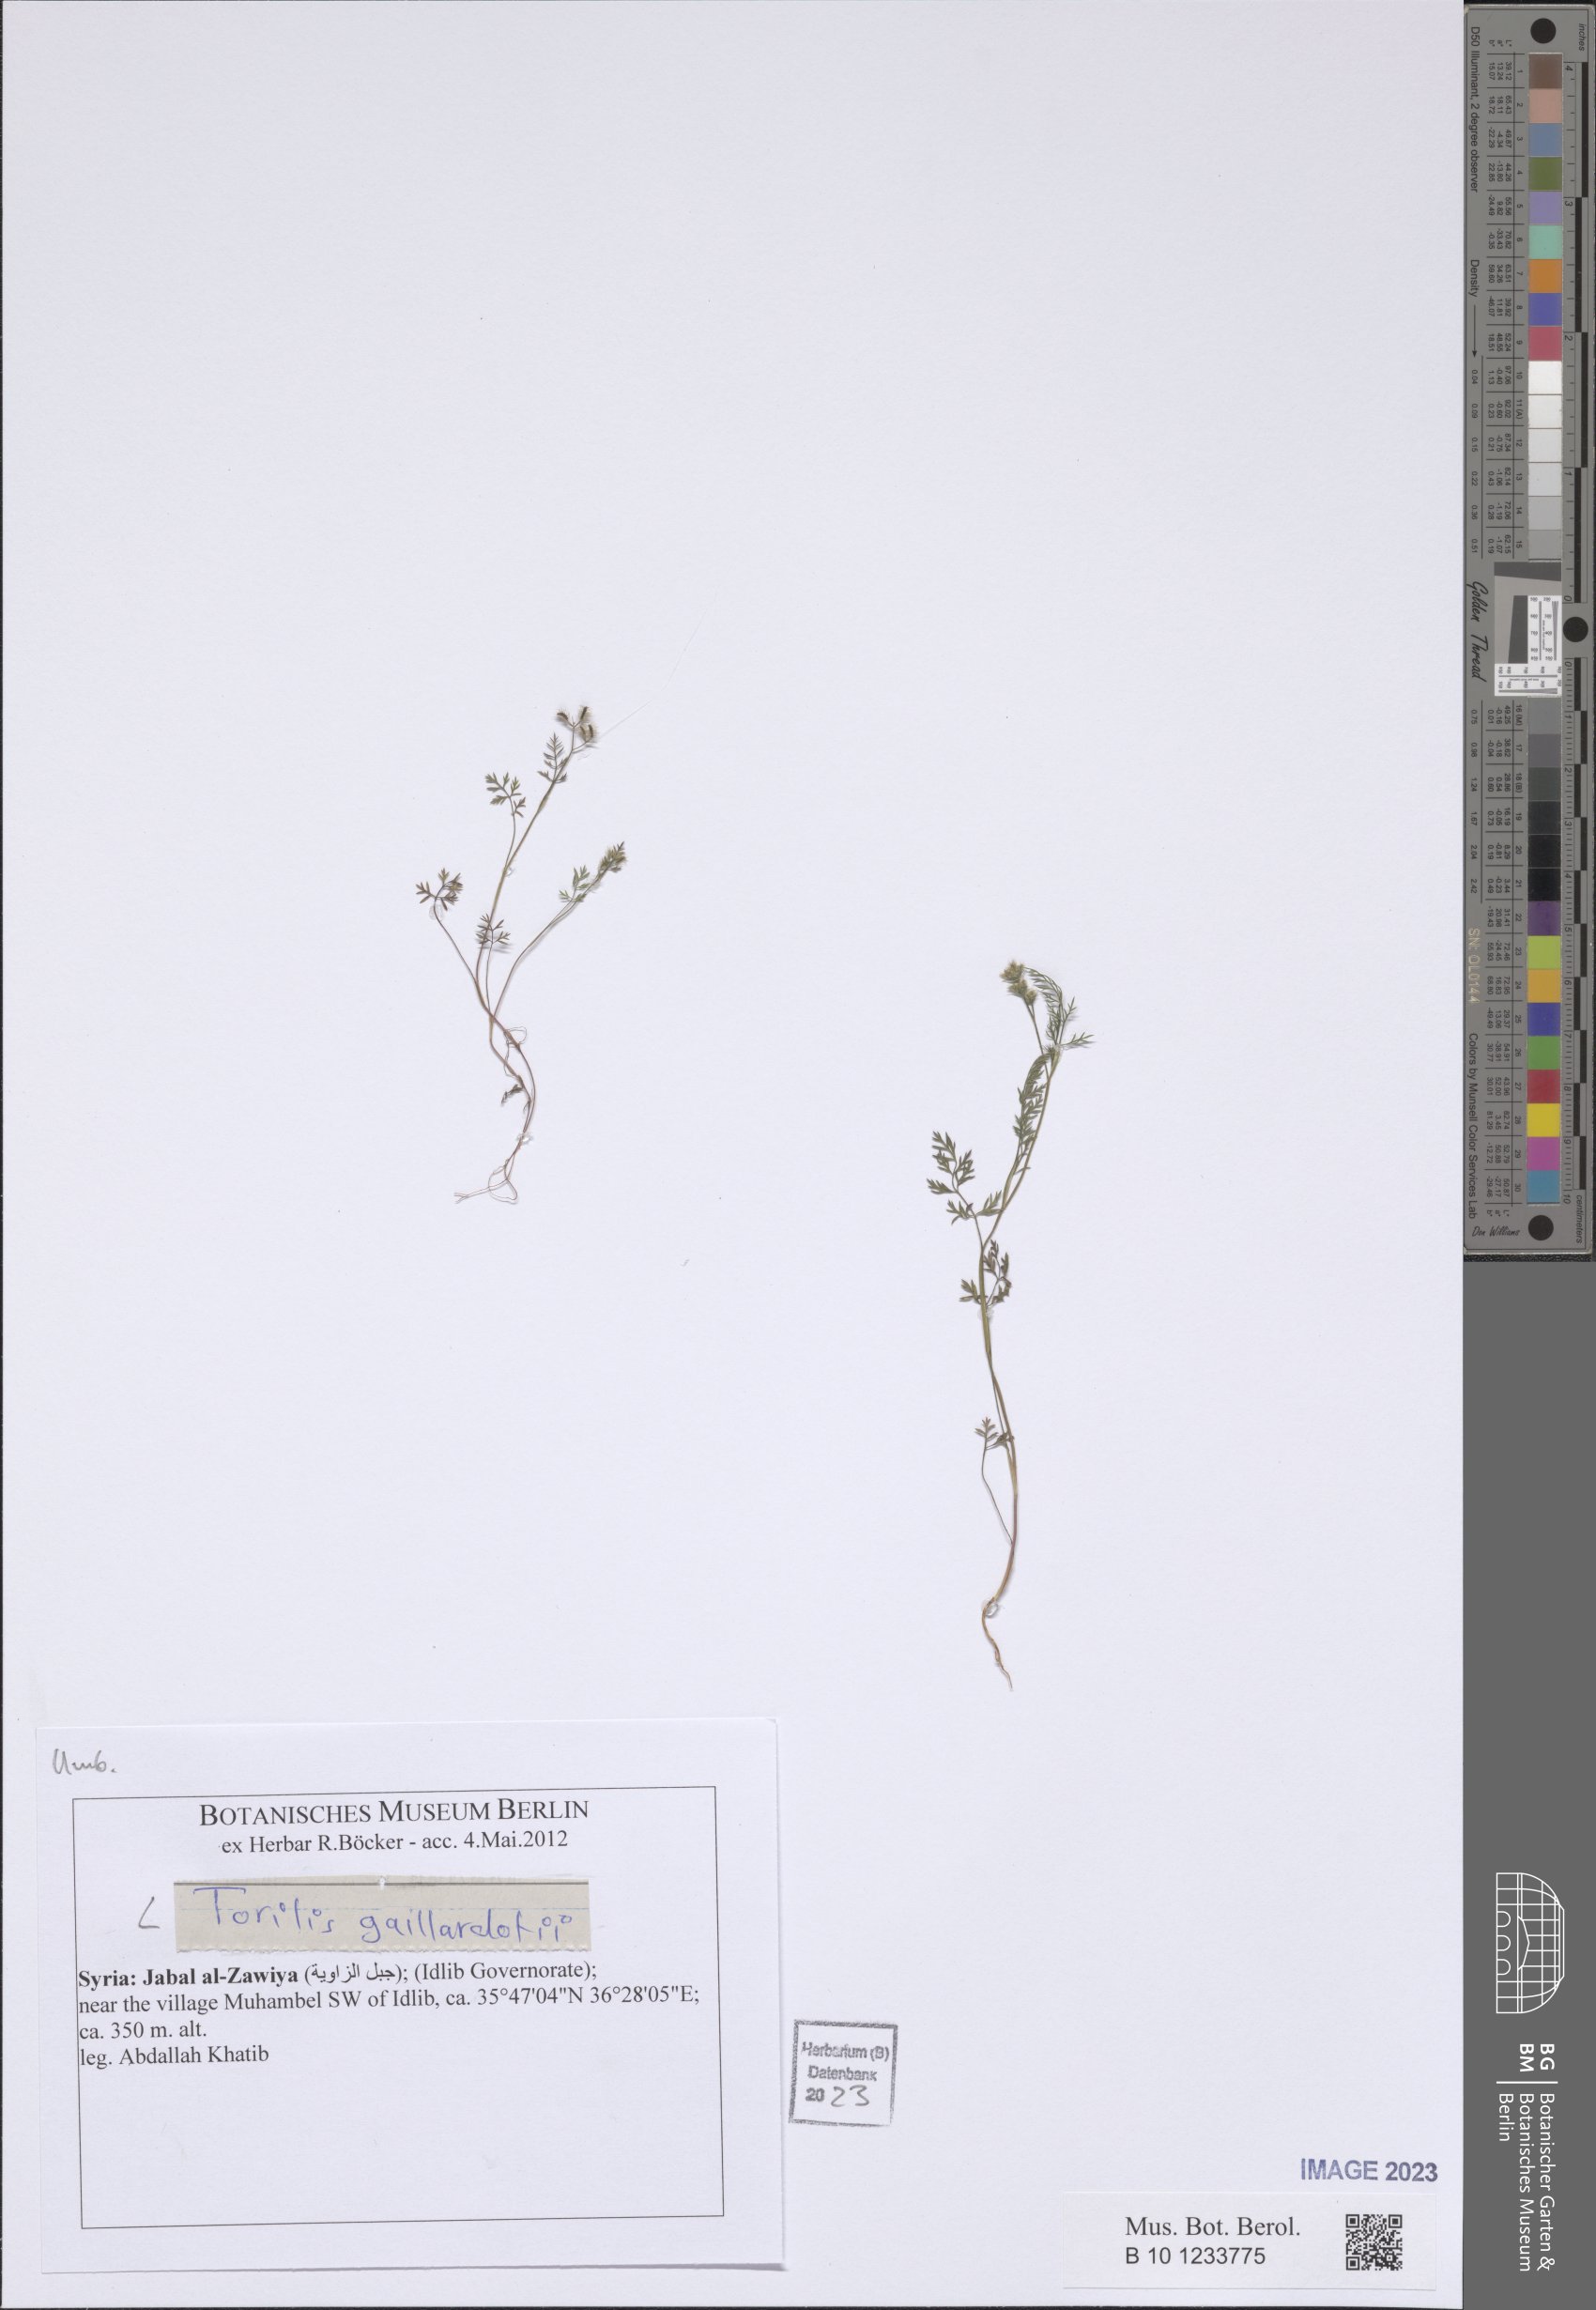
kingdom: Plantae
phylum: Tracheophyta
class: Magnoliopsida
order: Apiales
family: Apiaceae
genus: Torilis
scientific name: Torilis gaillardotii
